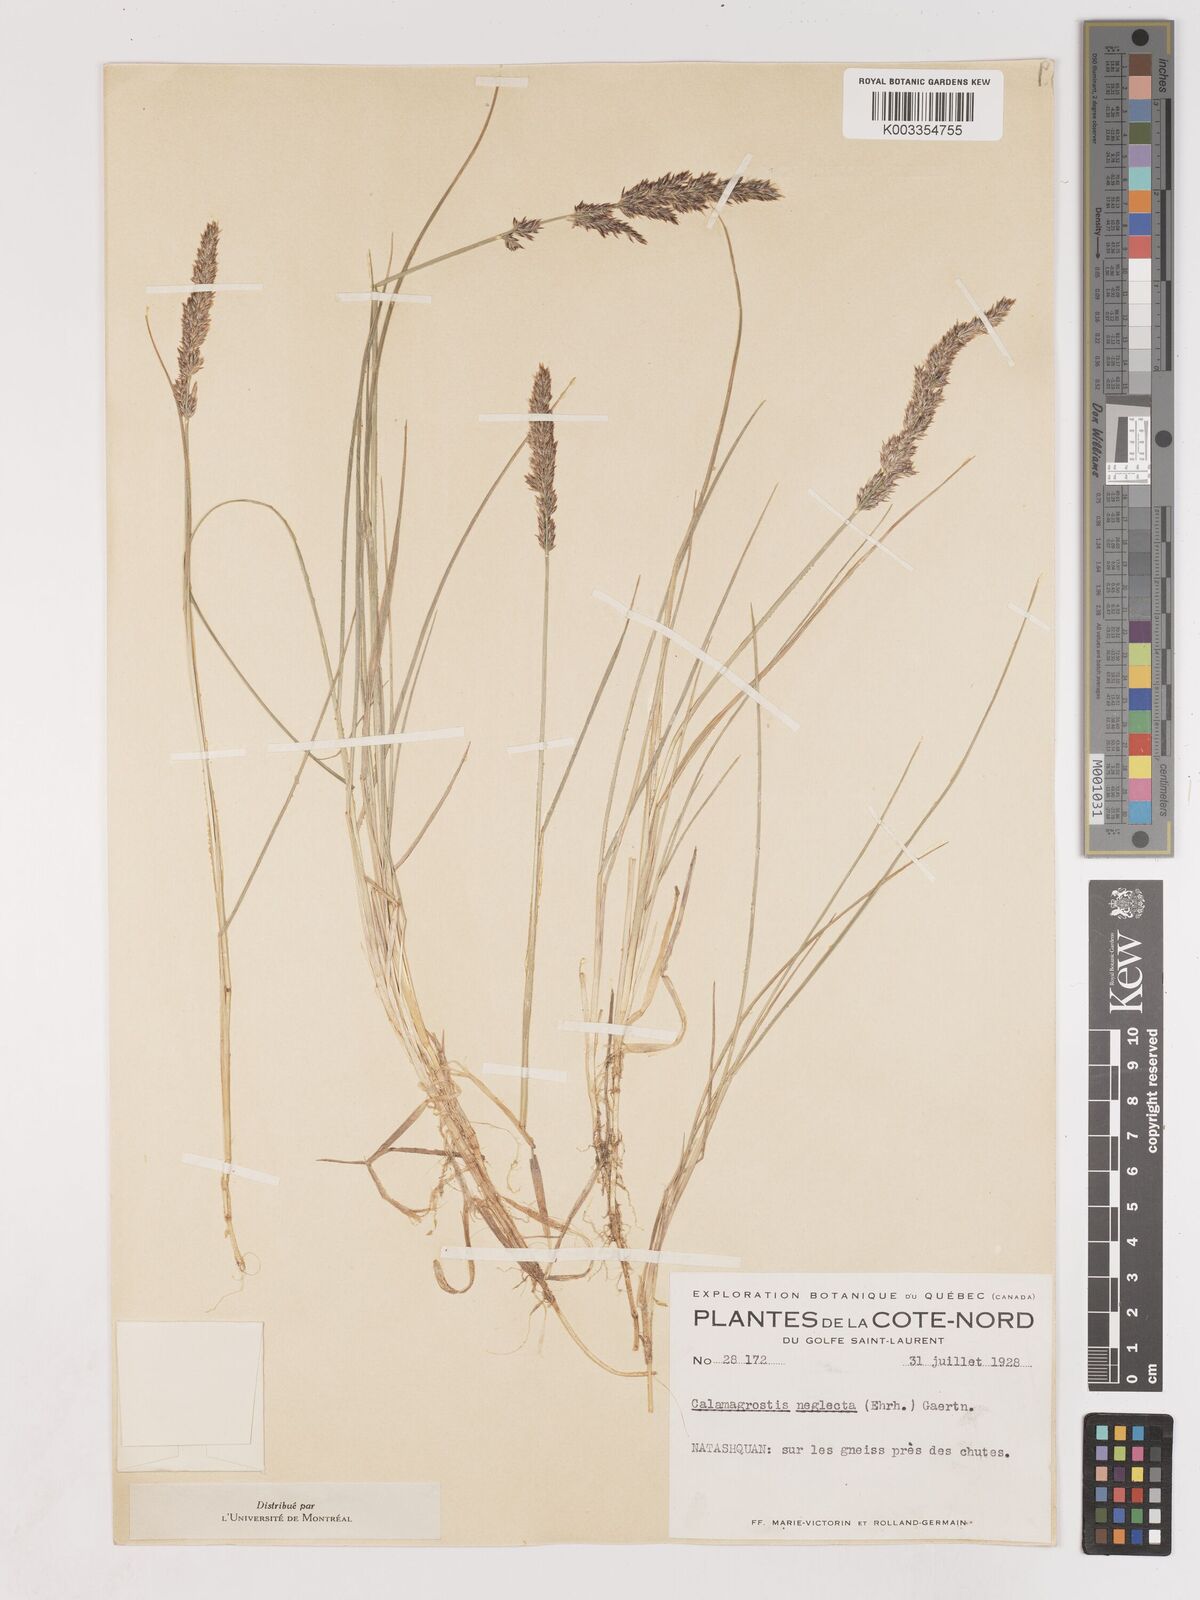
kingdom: Plantae
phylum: Tracheophyta
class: Liliopsida
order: Poales
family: Poaceae
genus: Cinnagrostis
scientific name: Cinnagrostis recta
